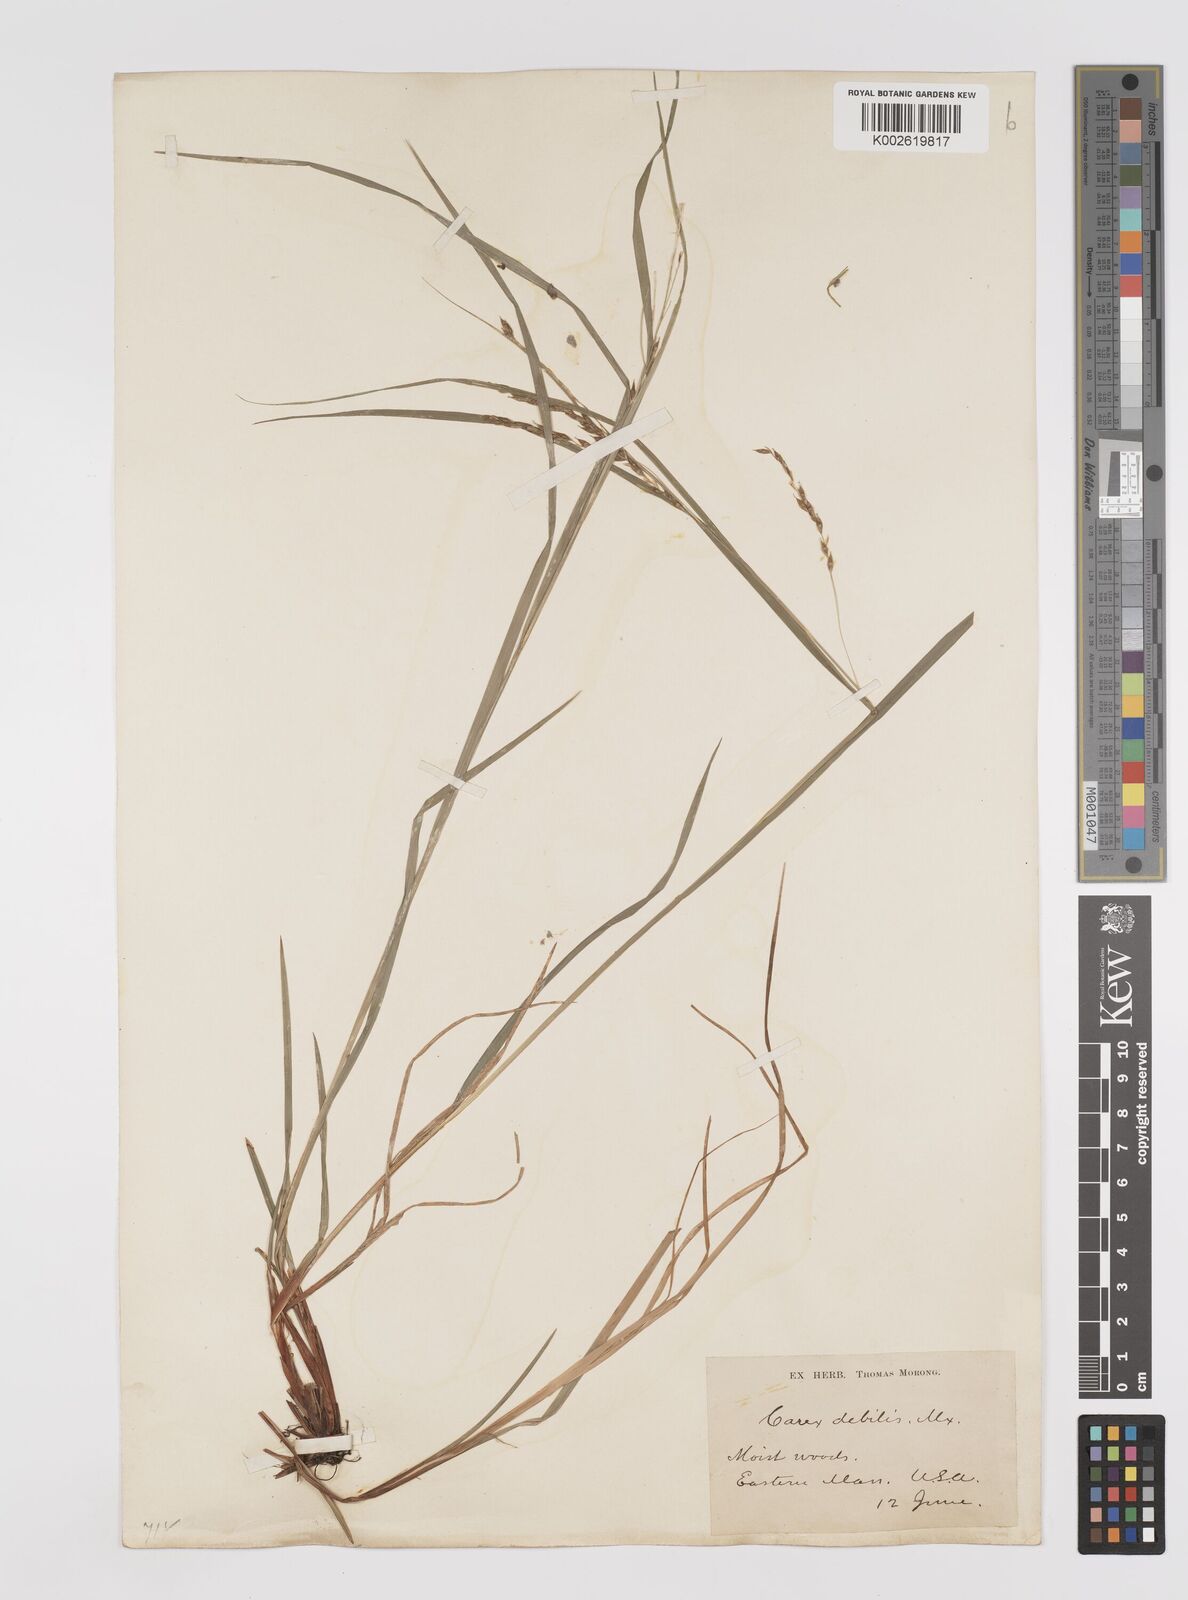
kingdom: Plantae
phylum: Tracheophyta
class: Liliopsida
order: Poales
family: Cyperaceae
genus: Carex
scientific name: Carex debilis
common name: White-edge sedge
